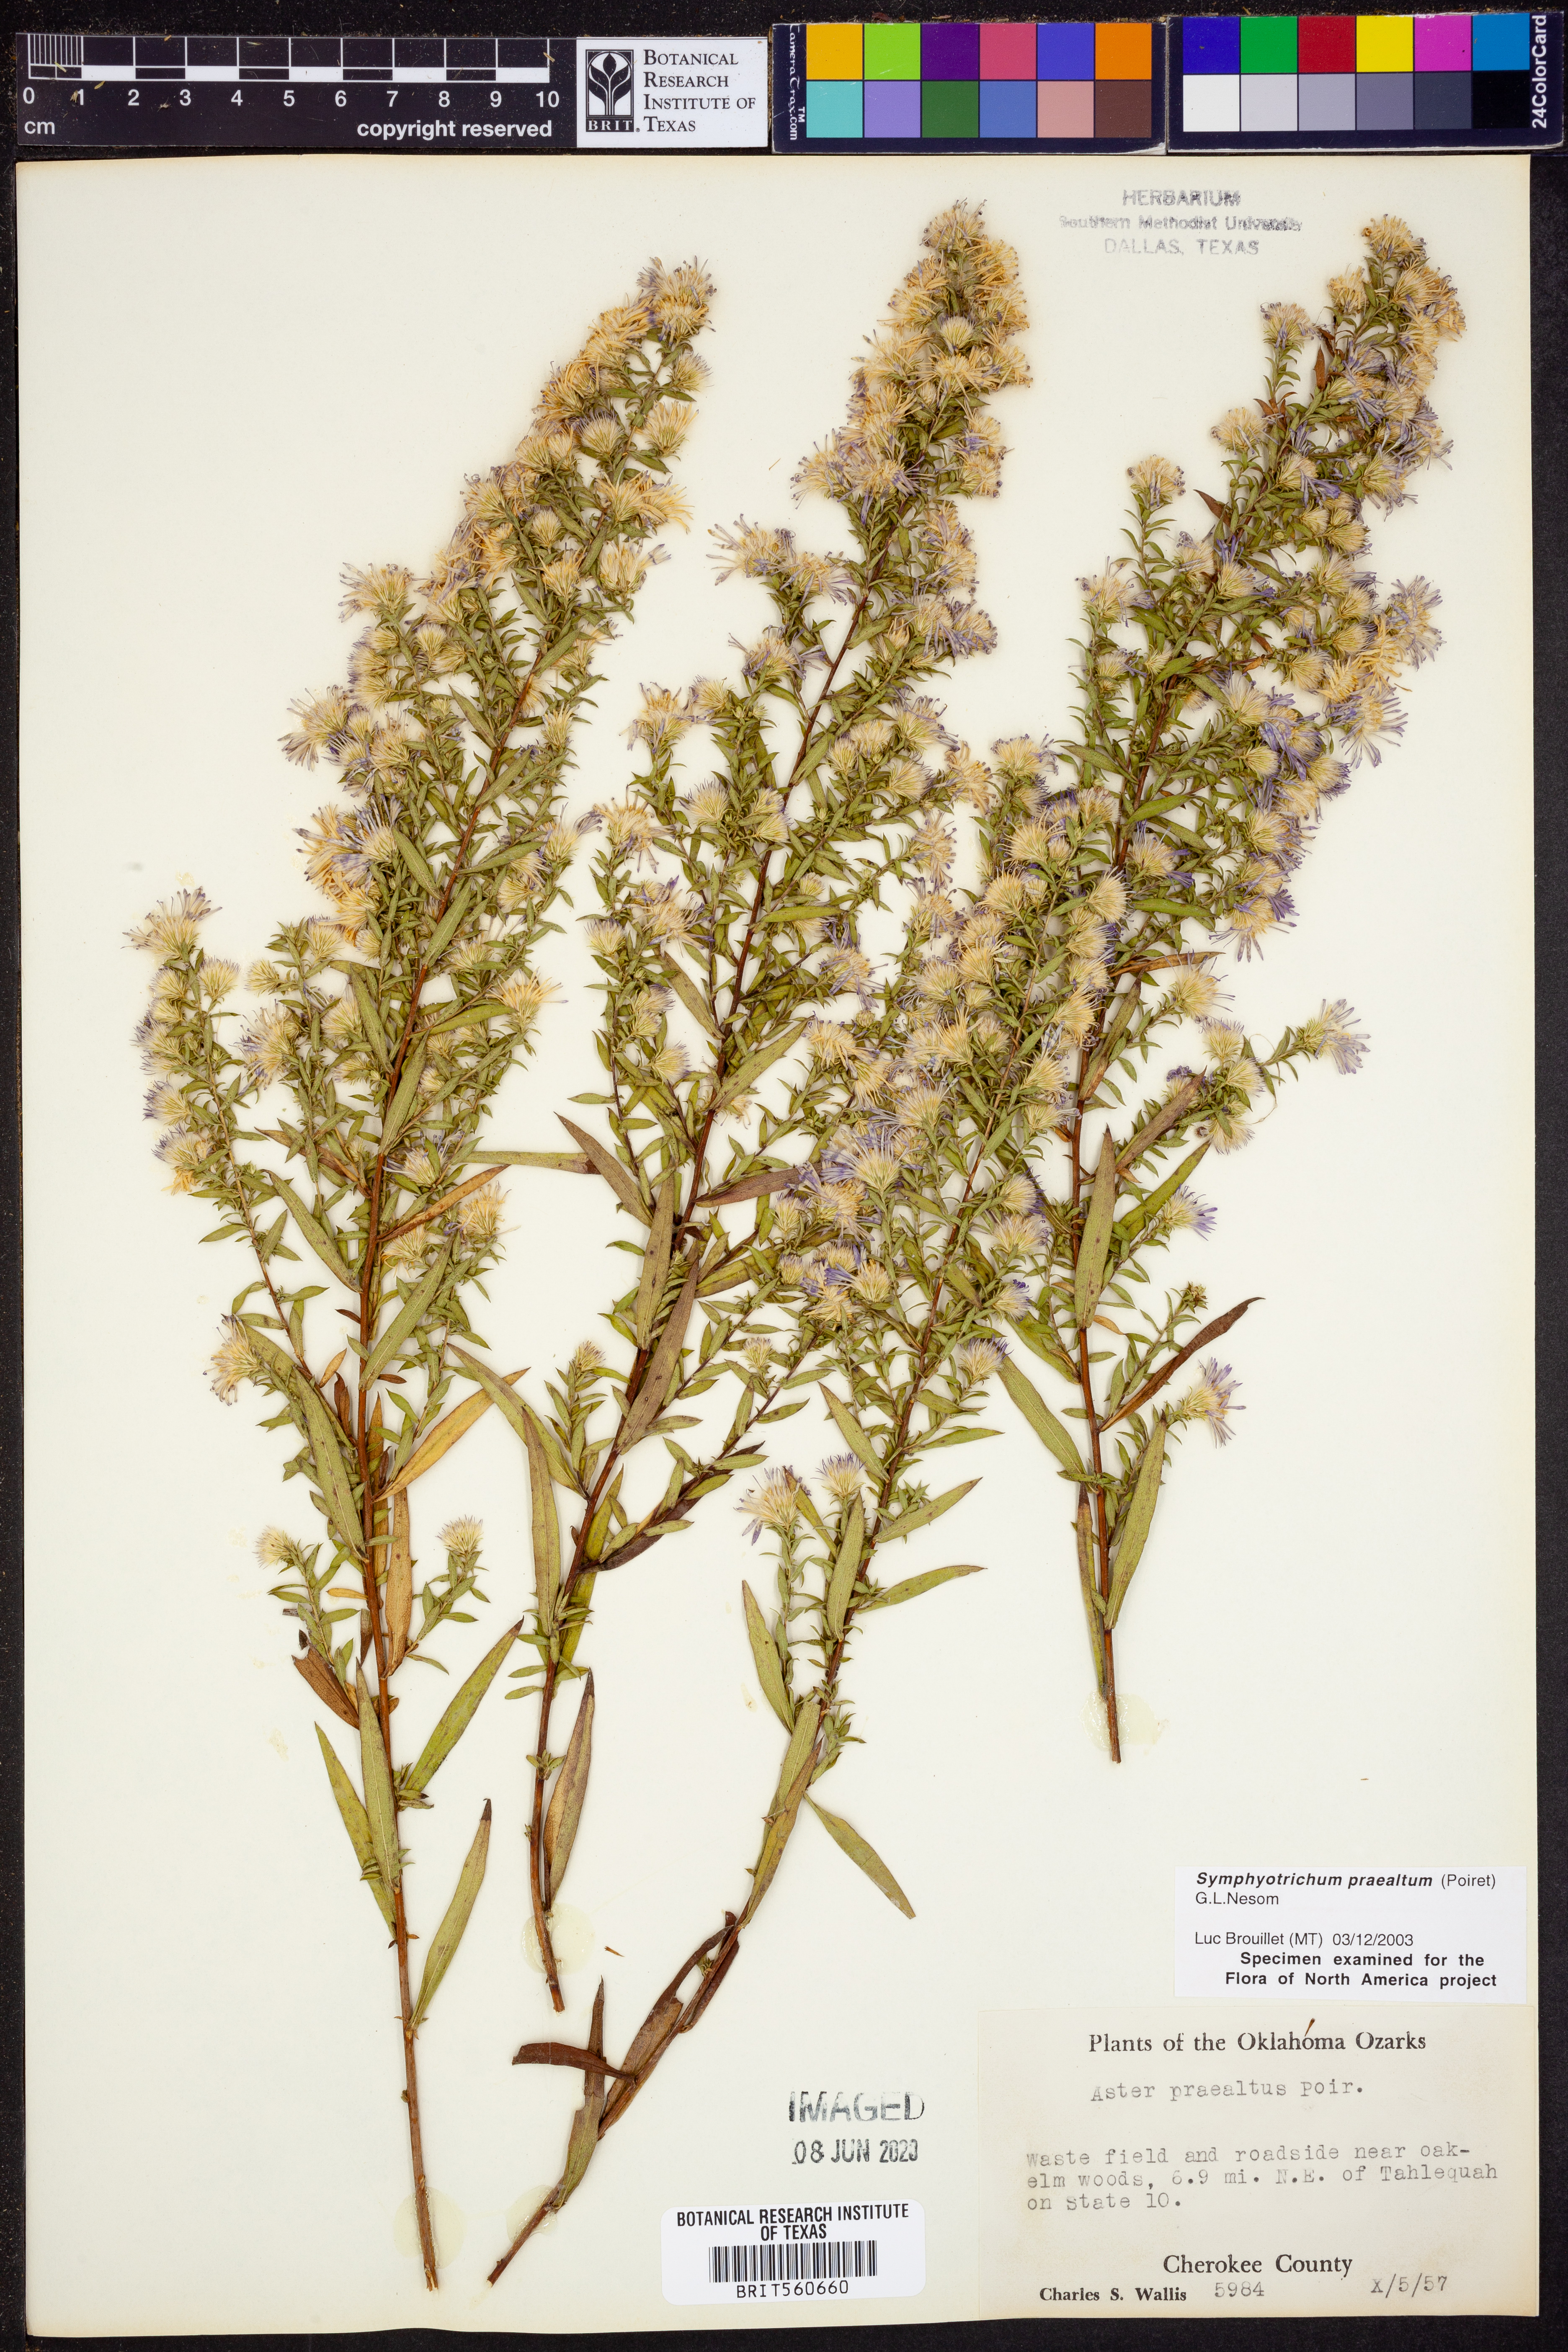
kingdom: Plantae
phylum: Tracheophyta
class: Magnoliopsida
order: Asterales
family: Asteraceae
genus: Symphyotrichum
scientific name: Symphyotrichum praealtum
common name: Willow aster
